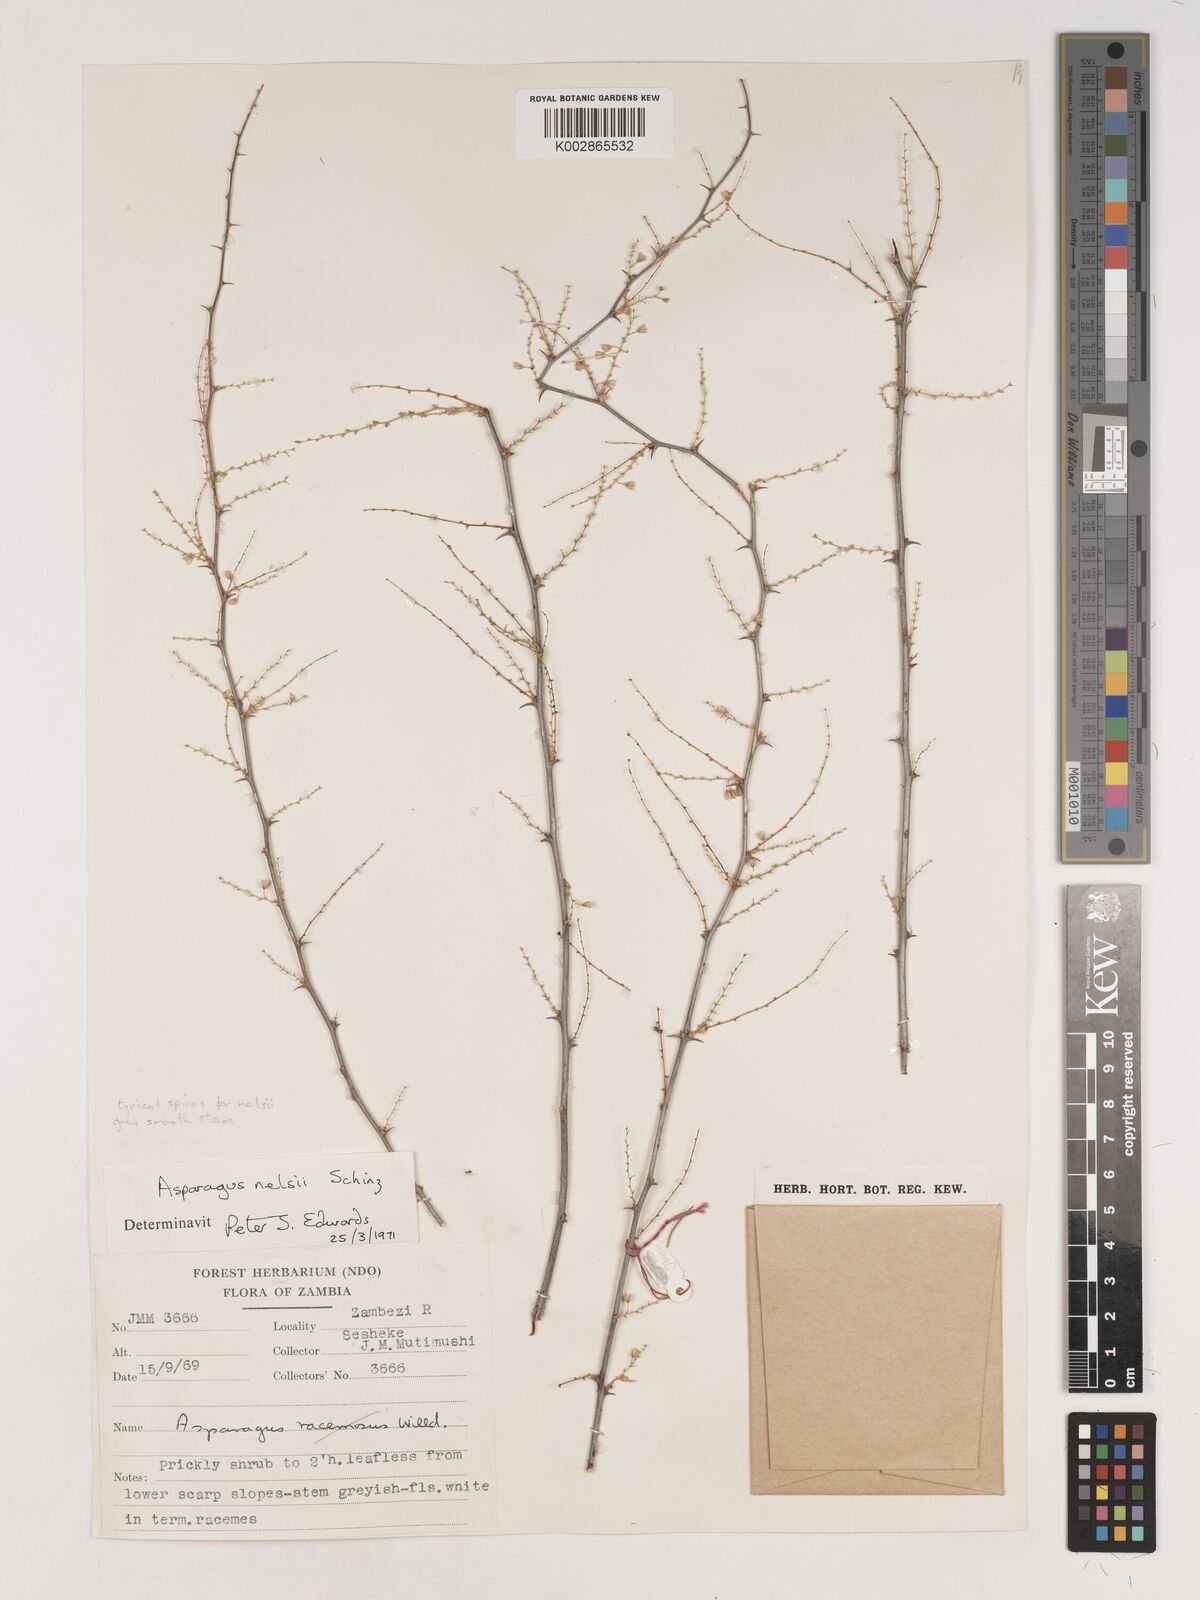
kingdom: Plantae
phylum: Tracheophyta
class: Liliopsida
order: Asparagales
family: Asparagaceae
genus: Asparagus
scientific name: Asparagus nelsii
